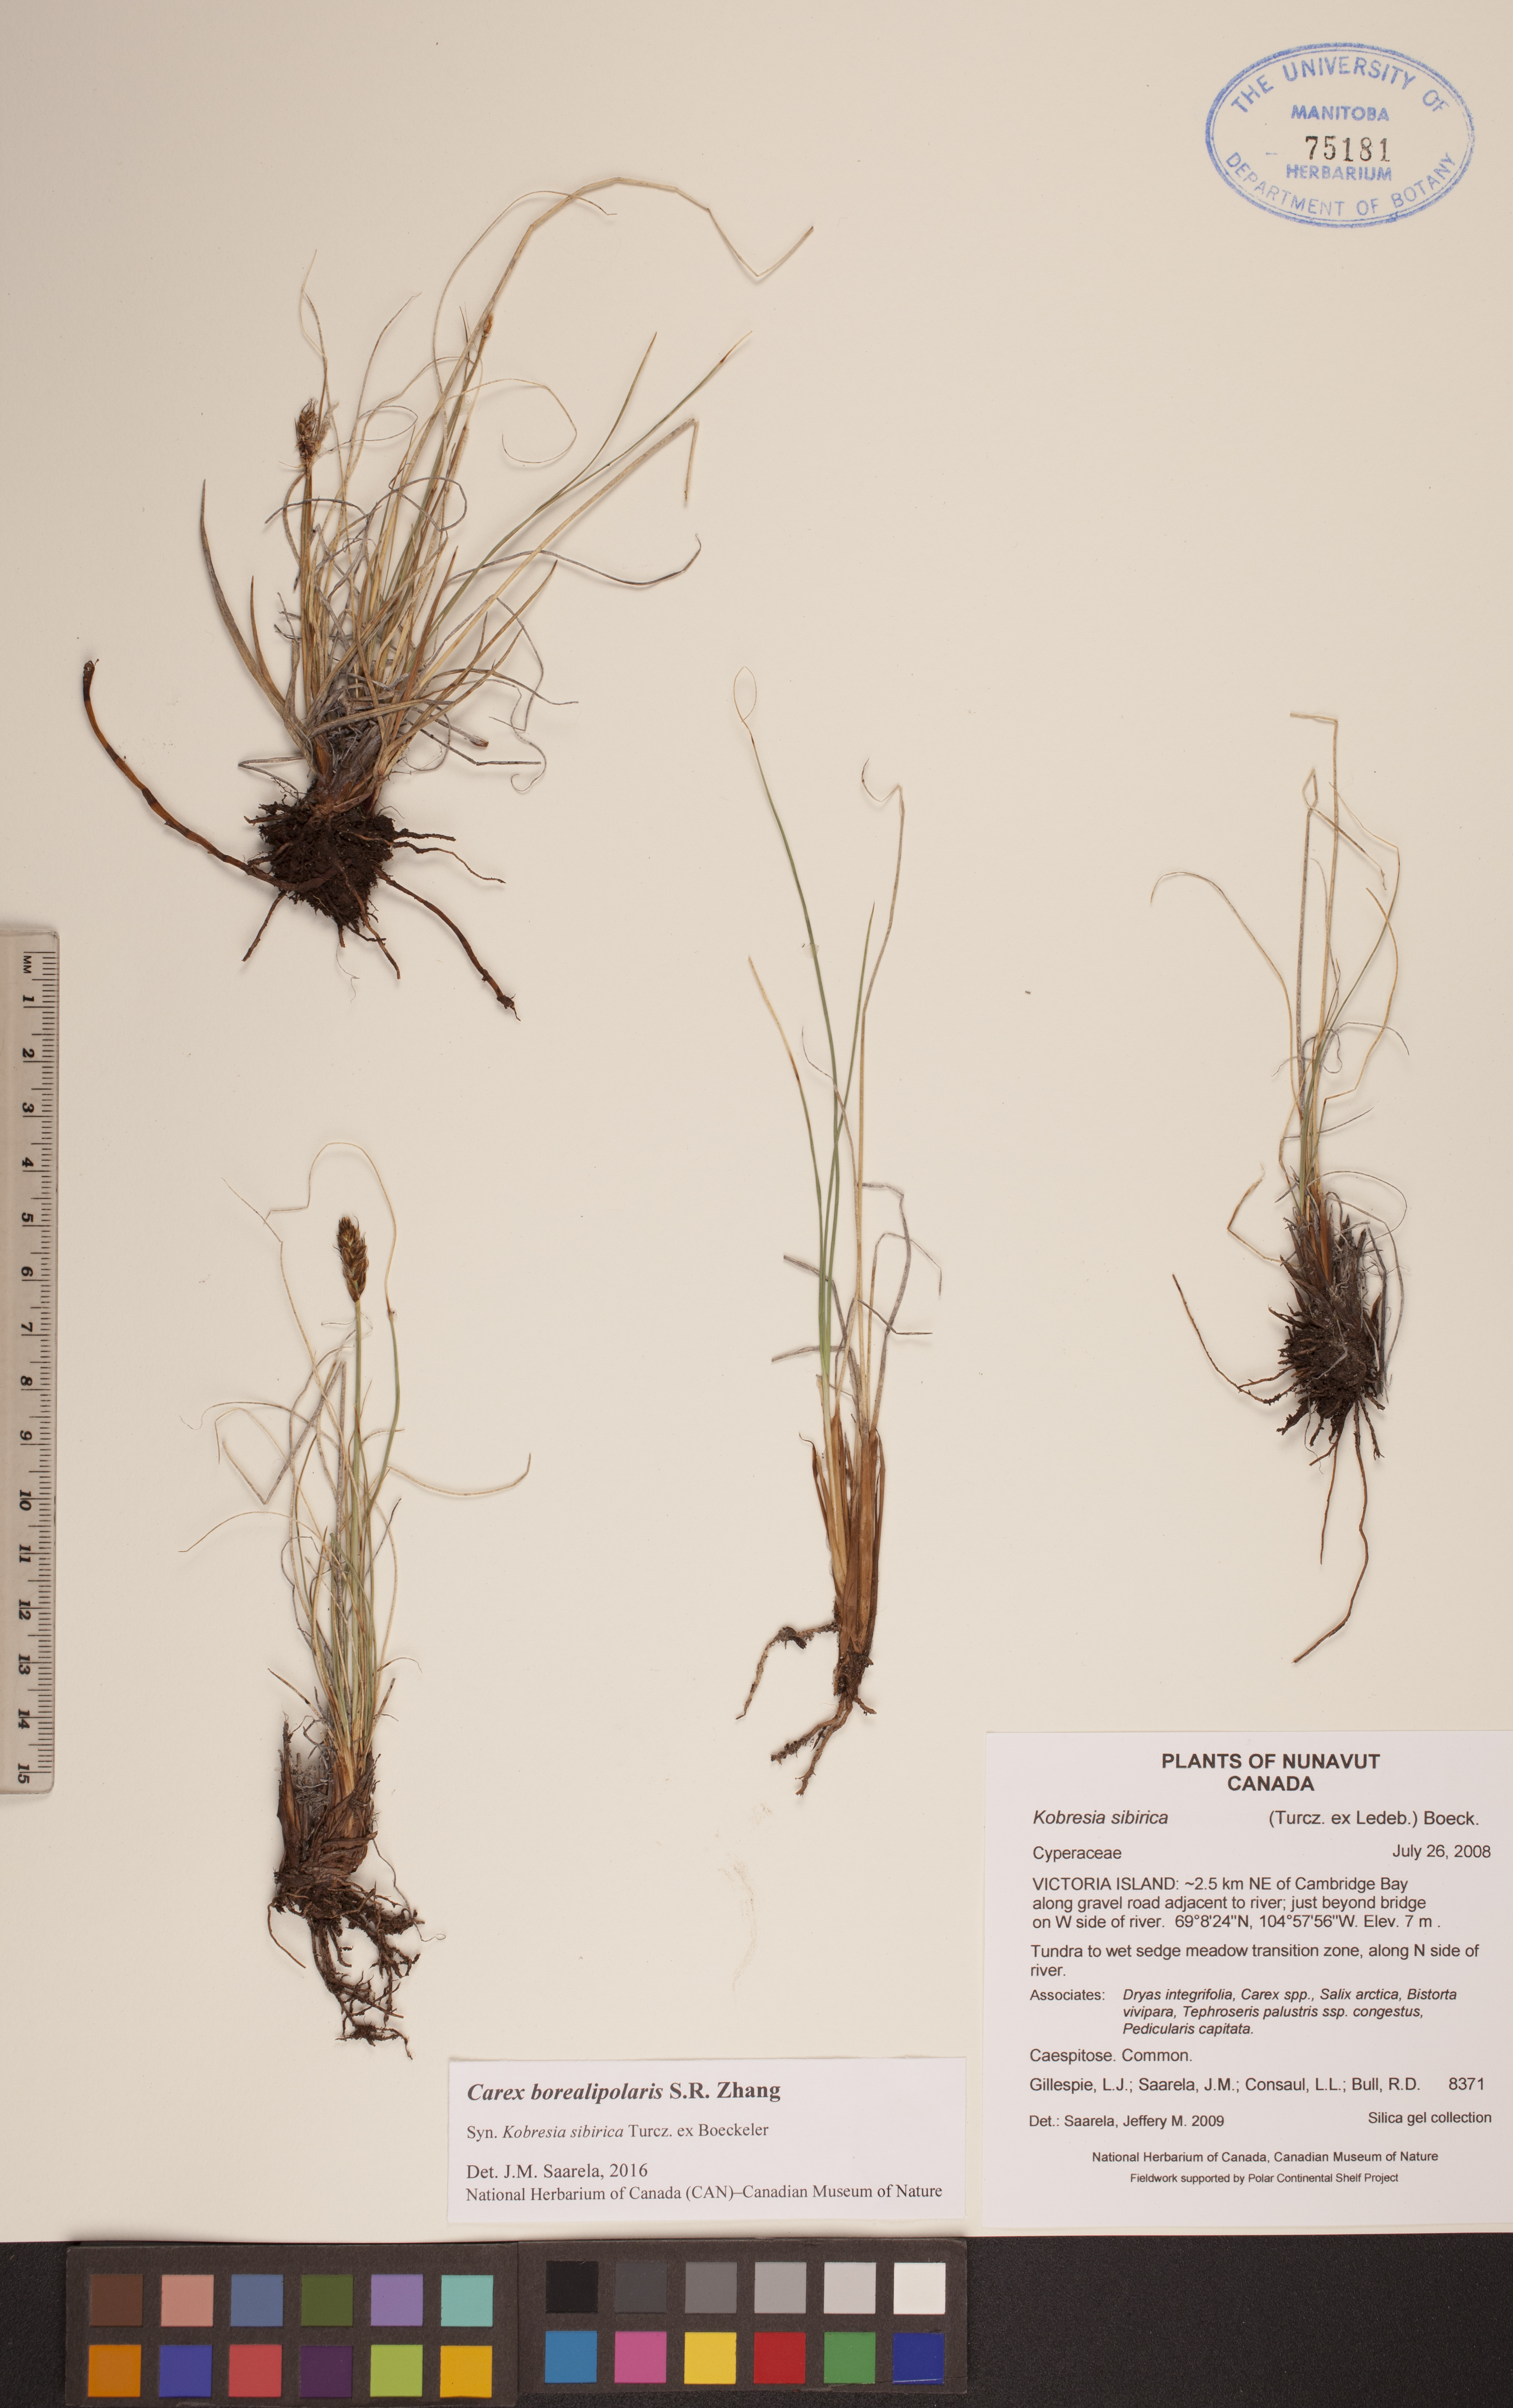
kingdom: Plantae
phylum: Tracheophyta
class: Liliopsida
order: Poales
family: Cyperaceae
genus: Carex
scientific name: Carex borealipolaris
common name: Siberian bog sedge
